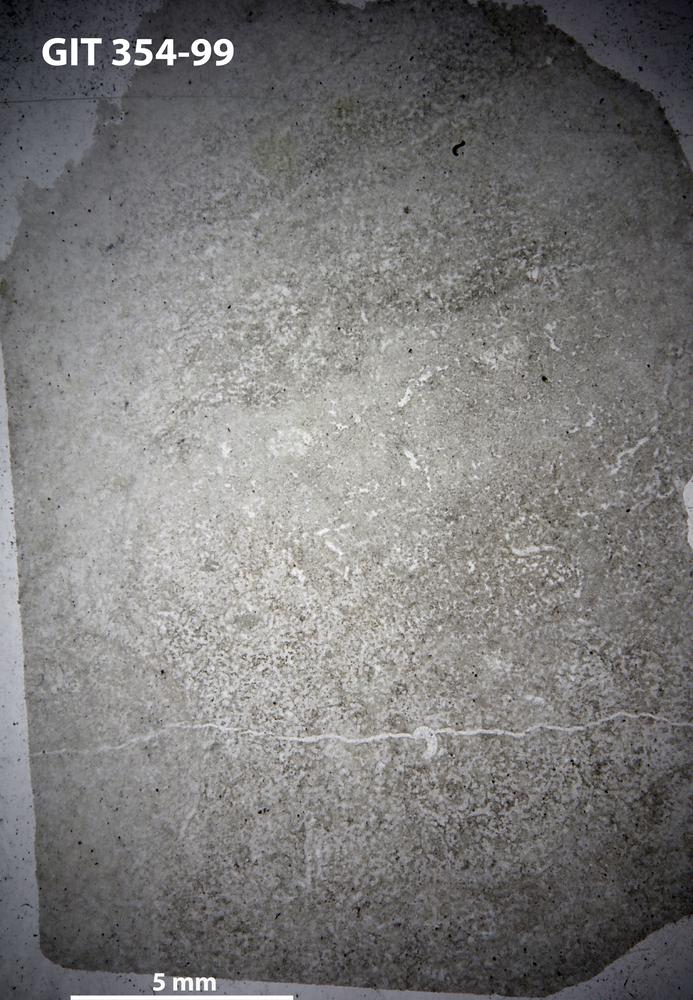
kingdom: Animalia
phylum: Porifera
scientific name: Porifera
